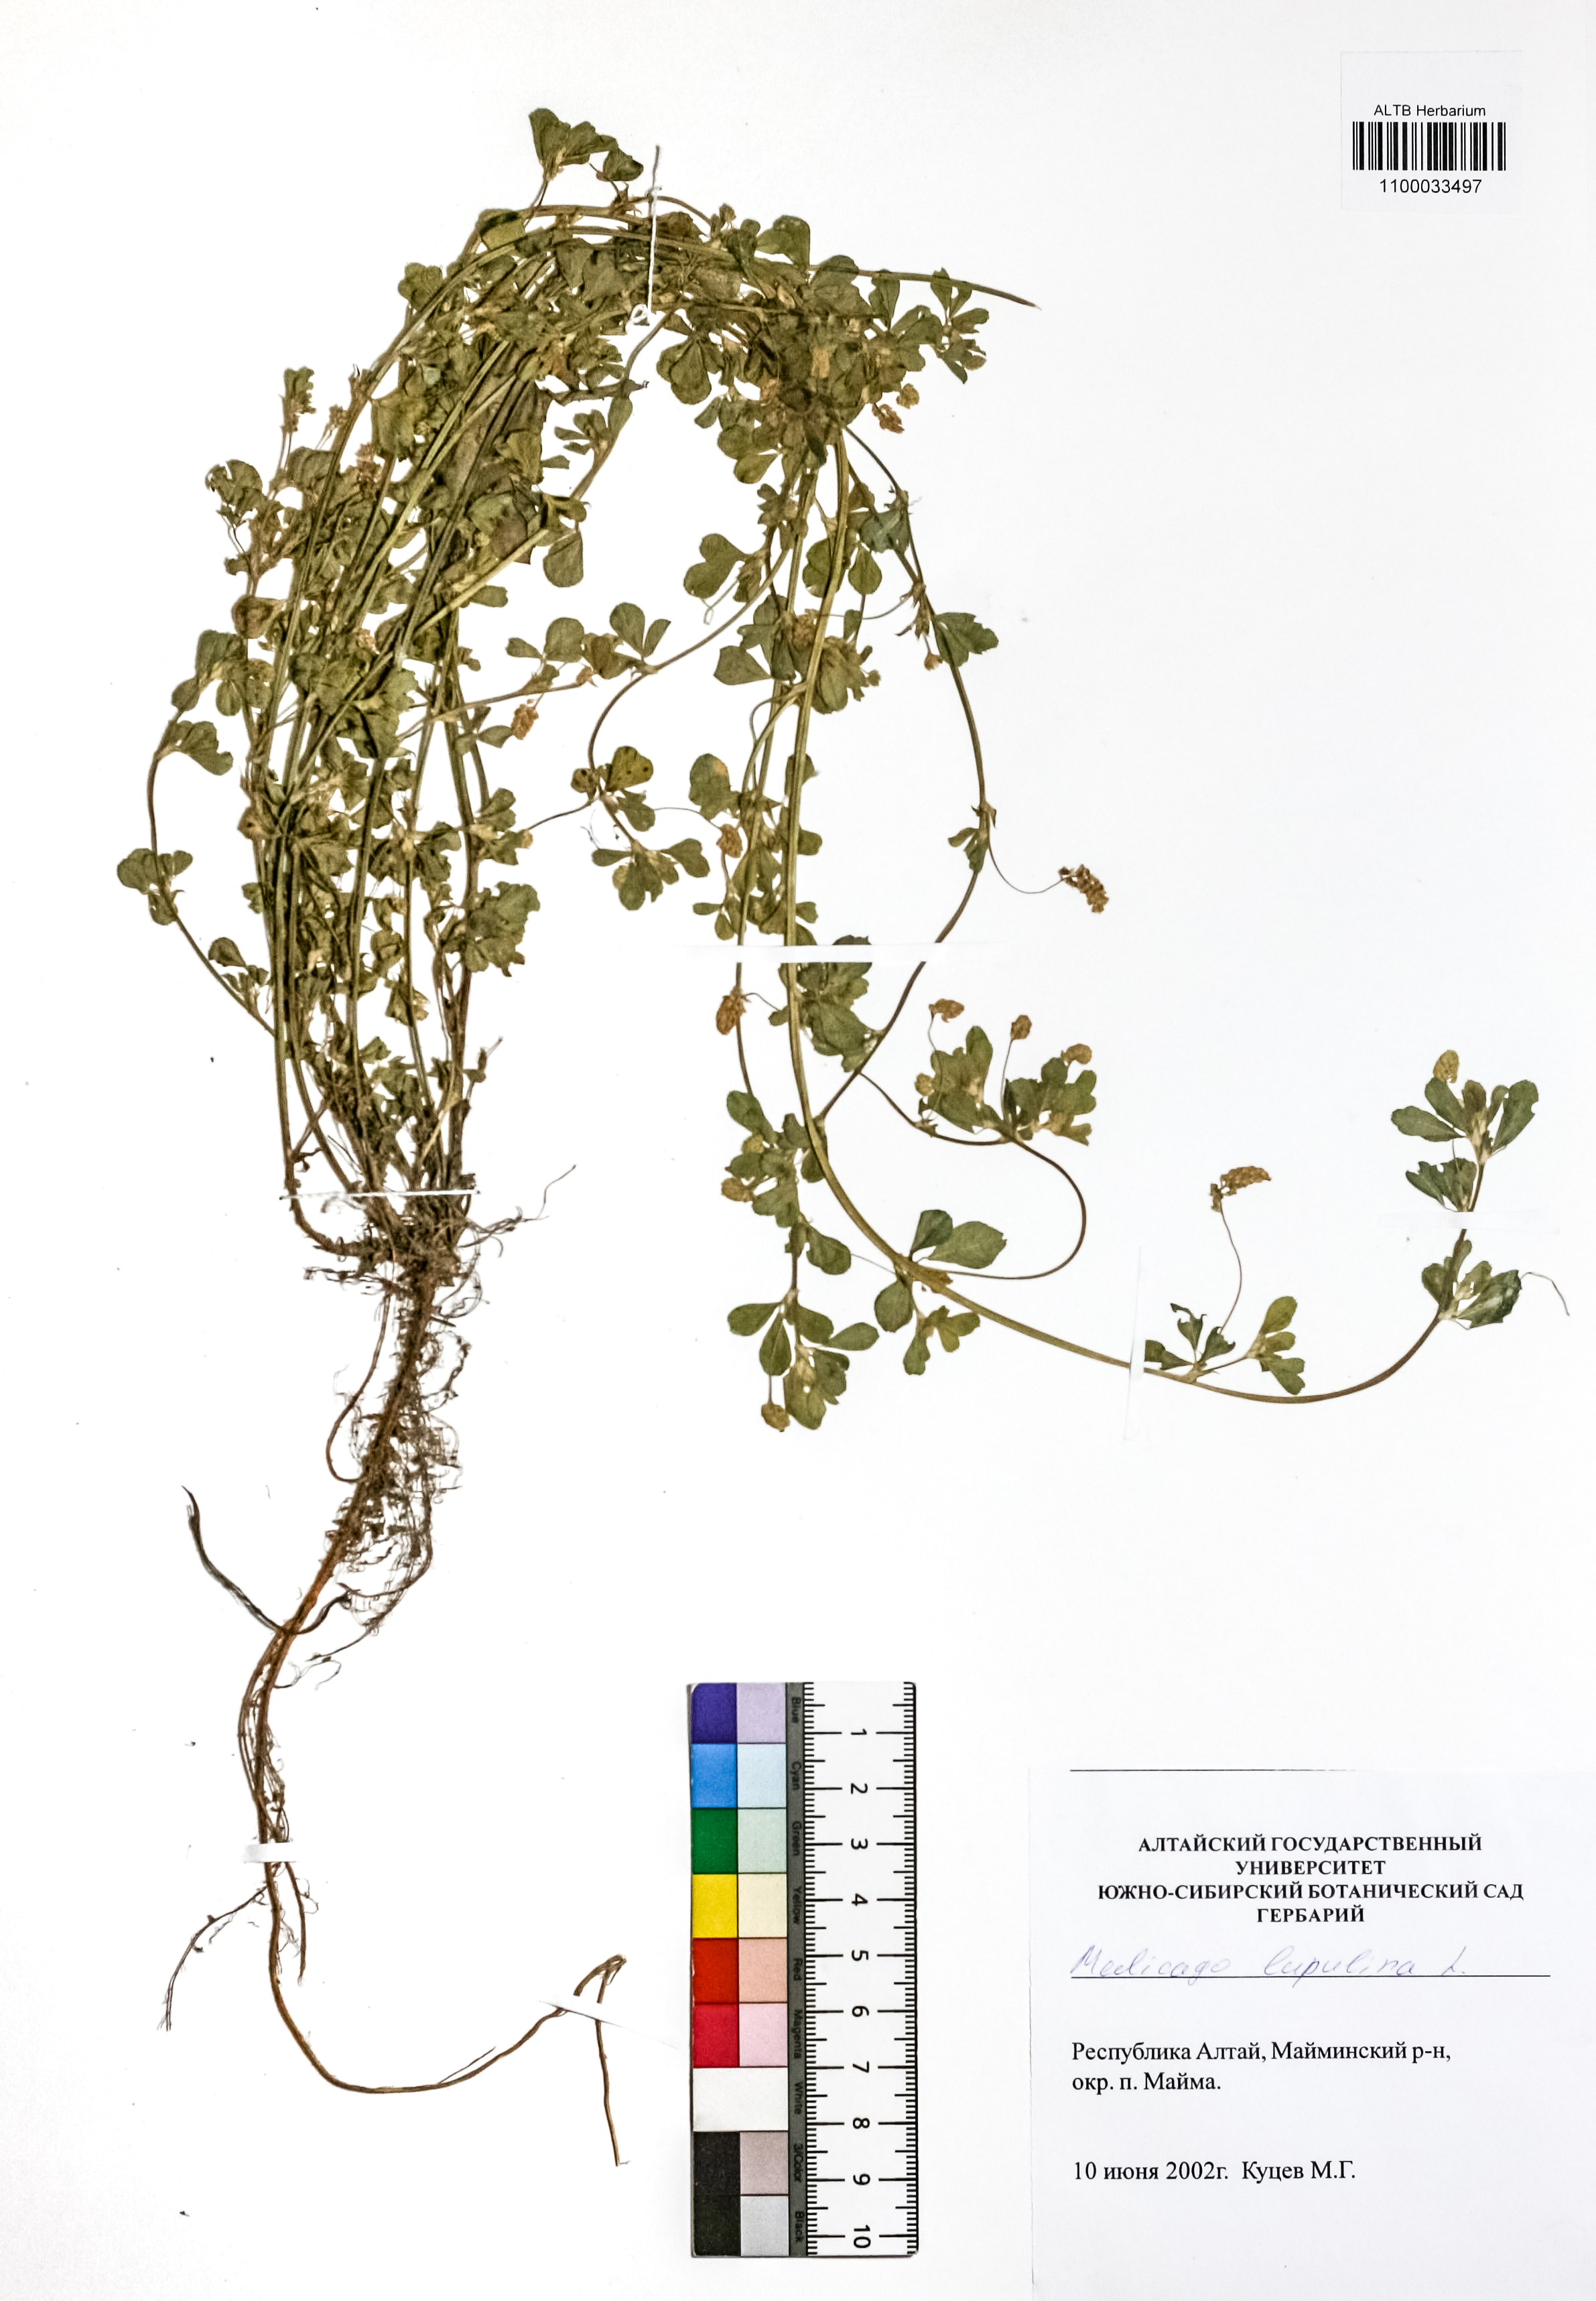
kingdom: Plantae
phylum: Tracheophyta
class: Magnoliopsida
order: Fabales
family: Fabaceae
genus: Medicago
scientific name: Medicago lupulina
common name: Black medick
